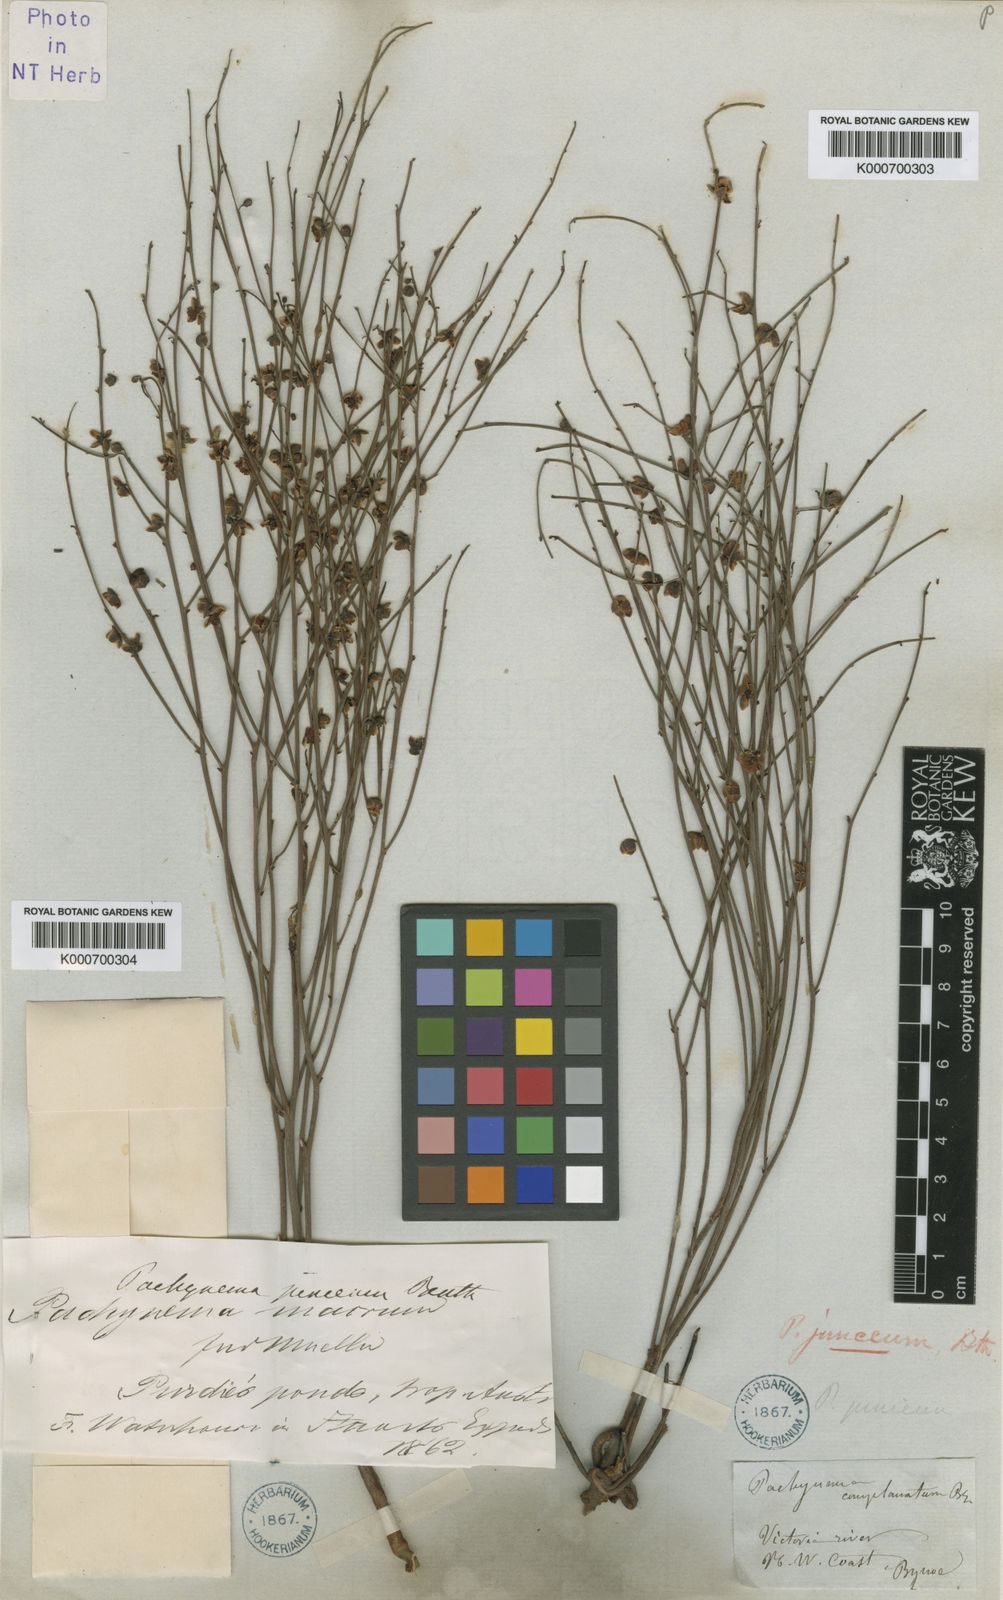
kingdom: Plantae
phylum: Tracheophyta
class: Magnoliopsida
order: Dilleniales
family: Dilleniaceae
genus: Hibbertia
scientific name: Hibbertia juncea
